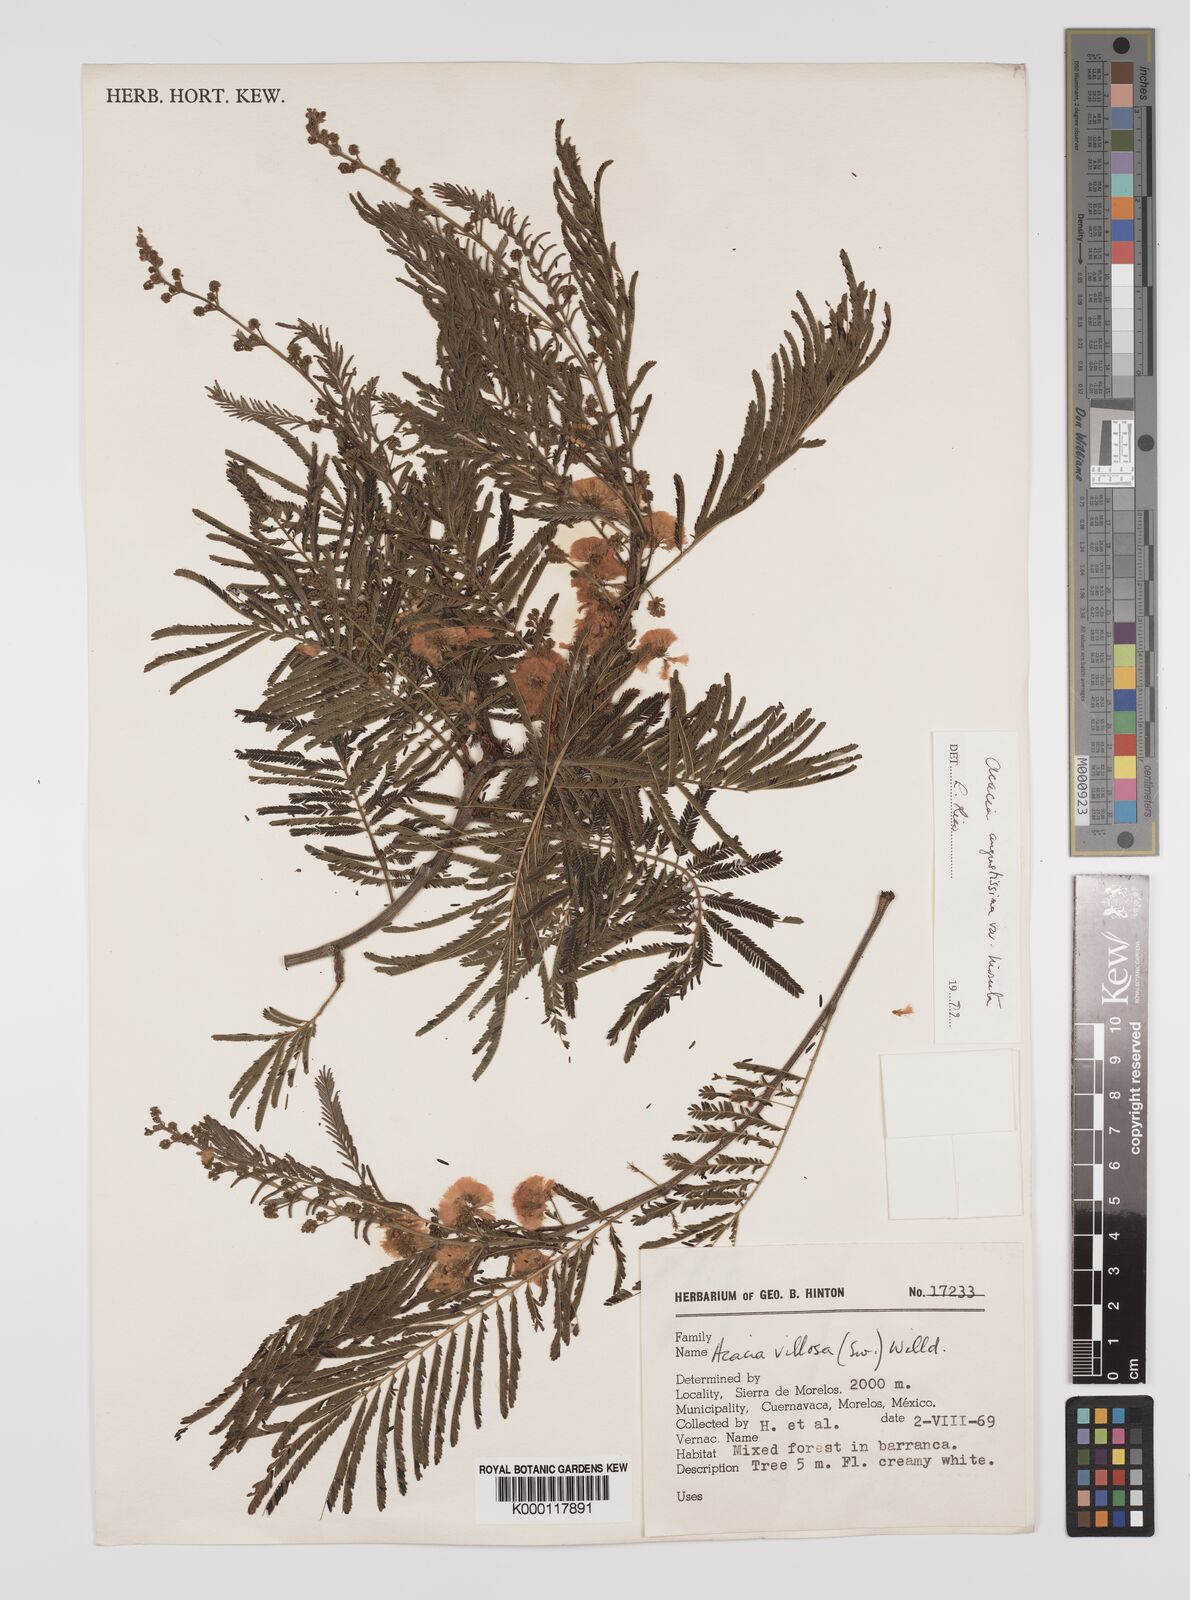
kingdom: Plantae
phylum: Tracheophyta
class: Magnoliopsida
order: Fabales
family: Fabaceae
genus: Acaciella
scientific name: Acaciella angustissima
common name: Prairie acacia
